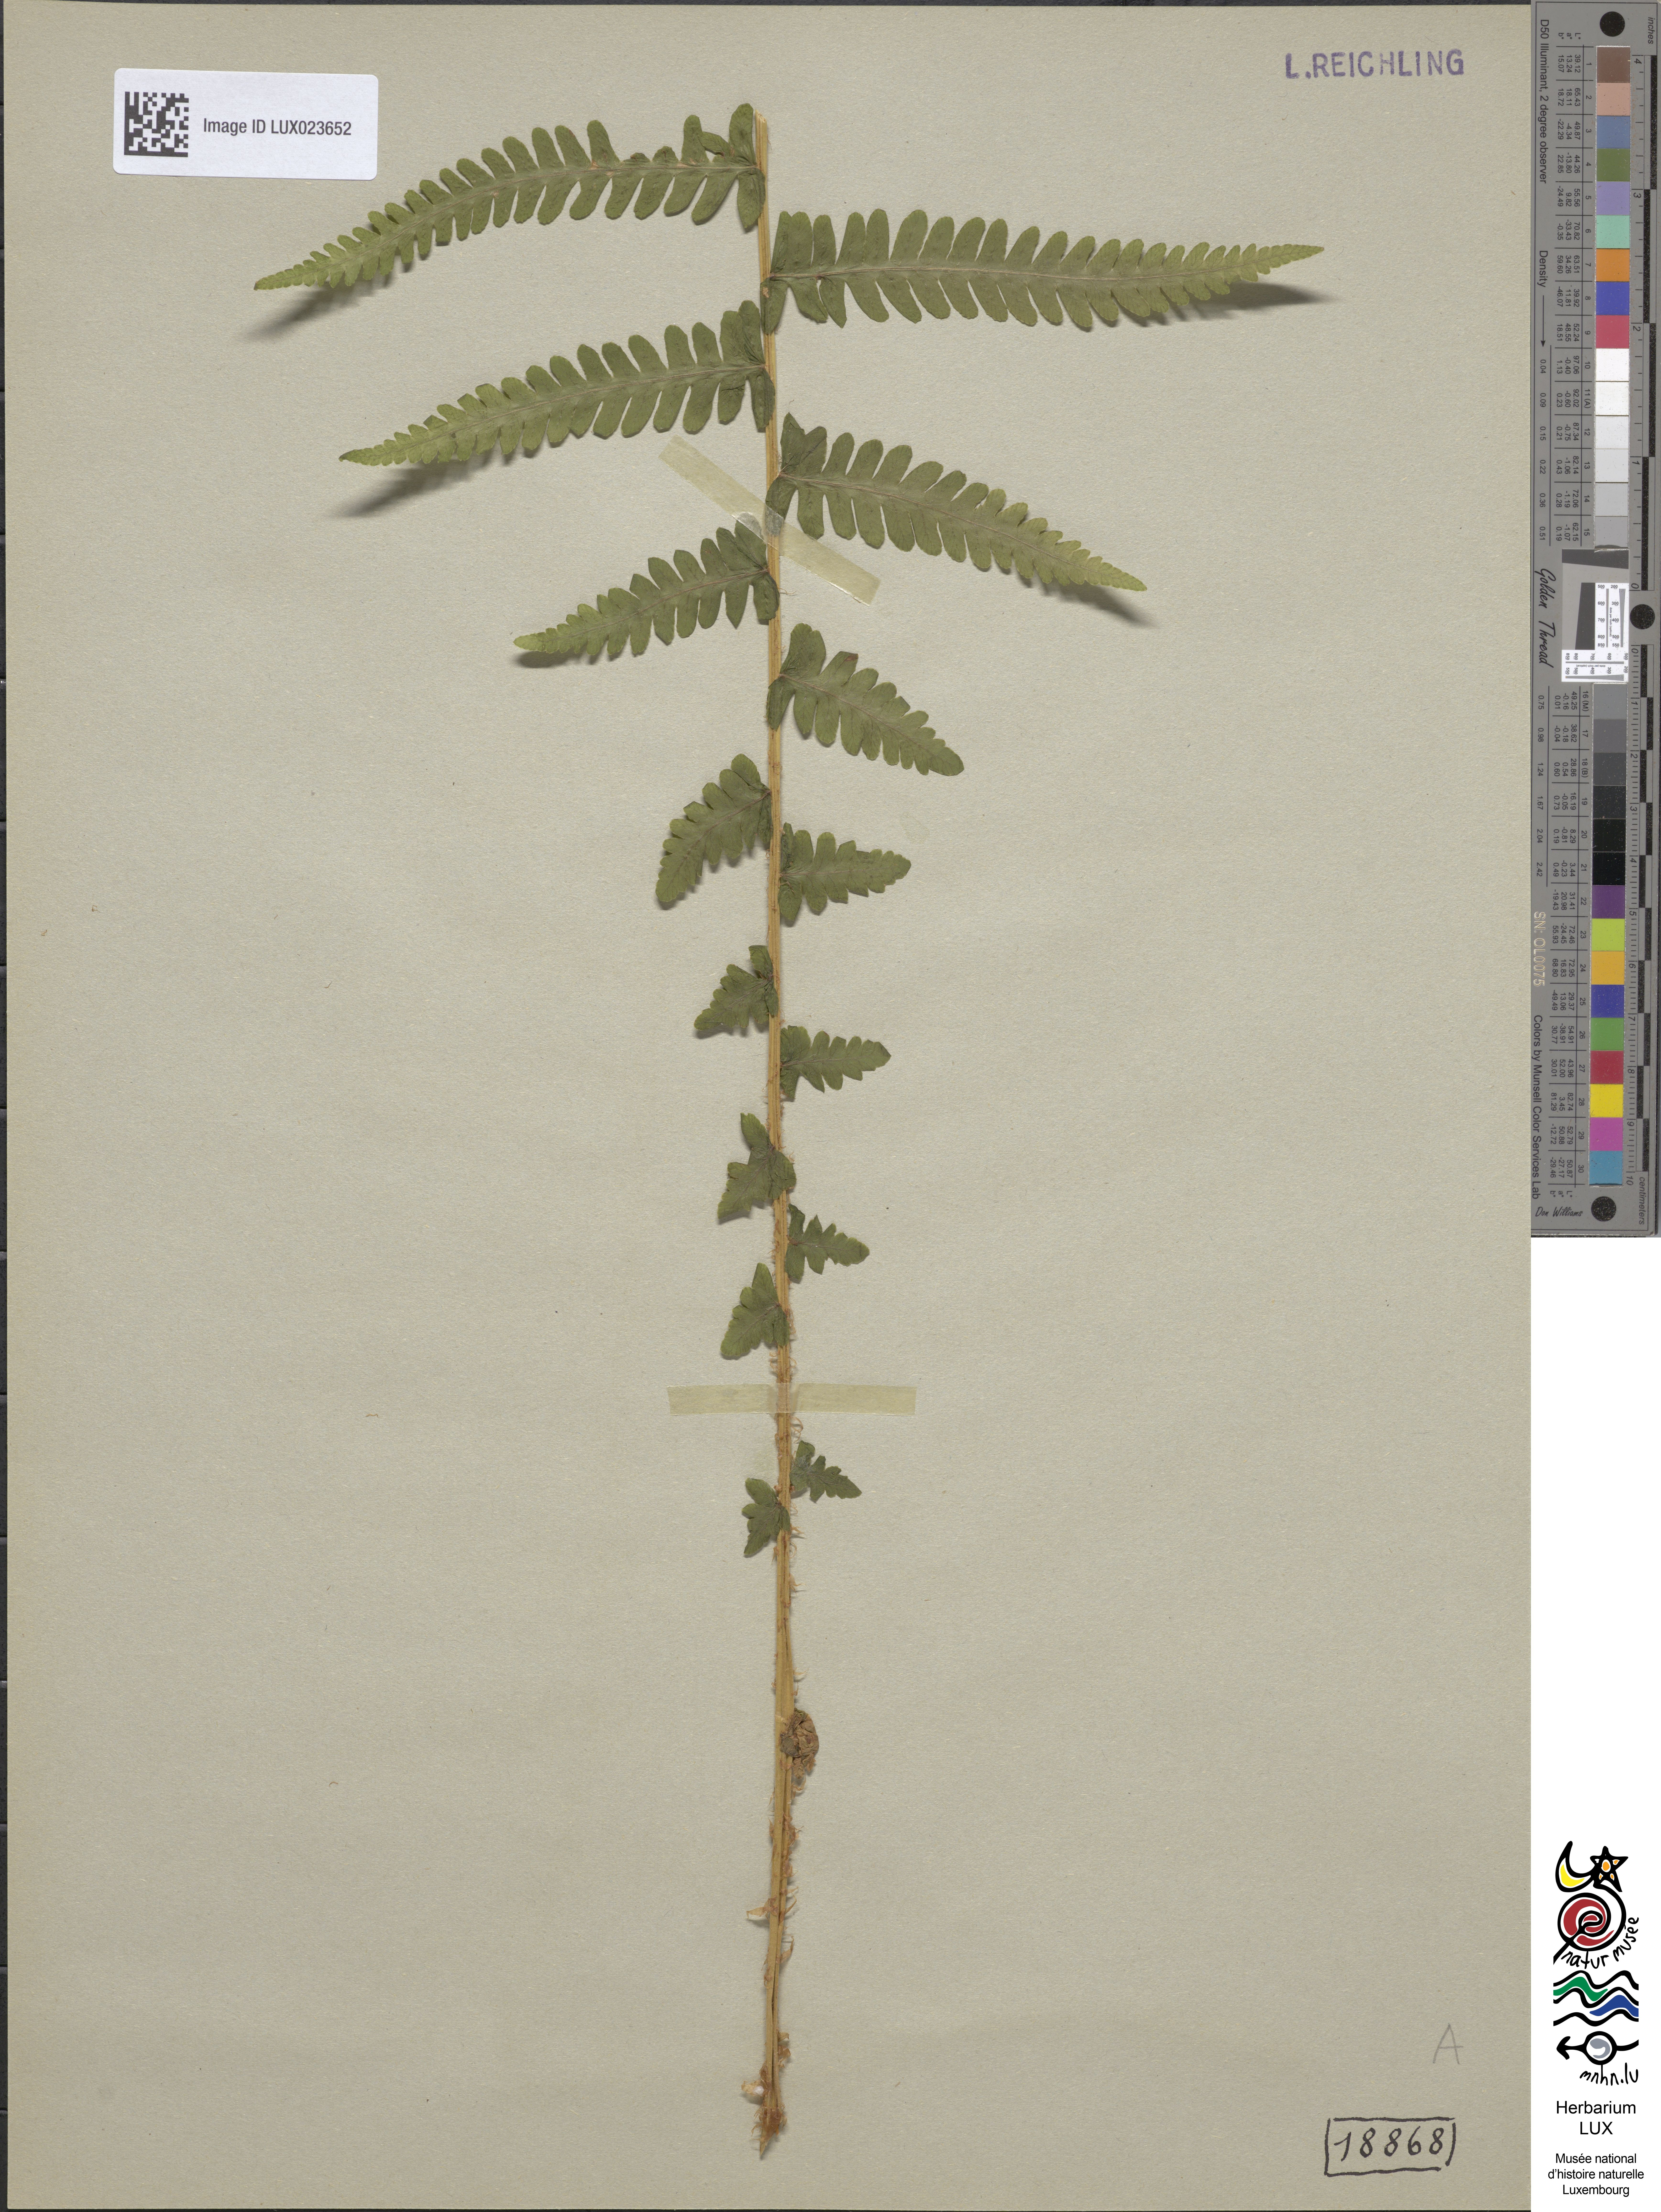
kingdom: Plantae
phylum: Tracheophyta
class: Polypodiopsida
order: Polypodiales
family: Thelypteridaceae
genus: Oreopteris
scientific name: Oreopteris limbosperma
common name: Lemon-scented fern
